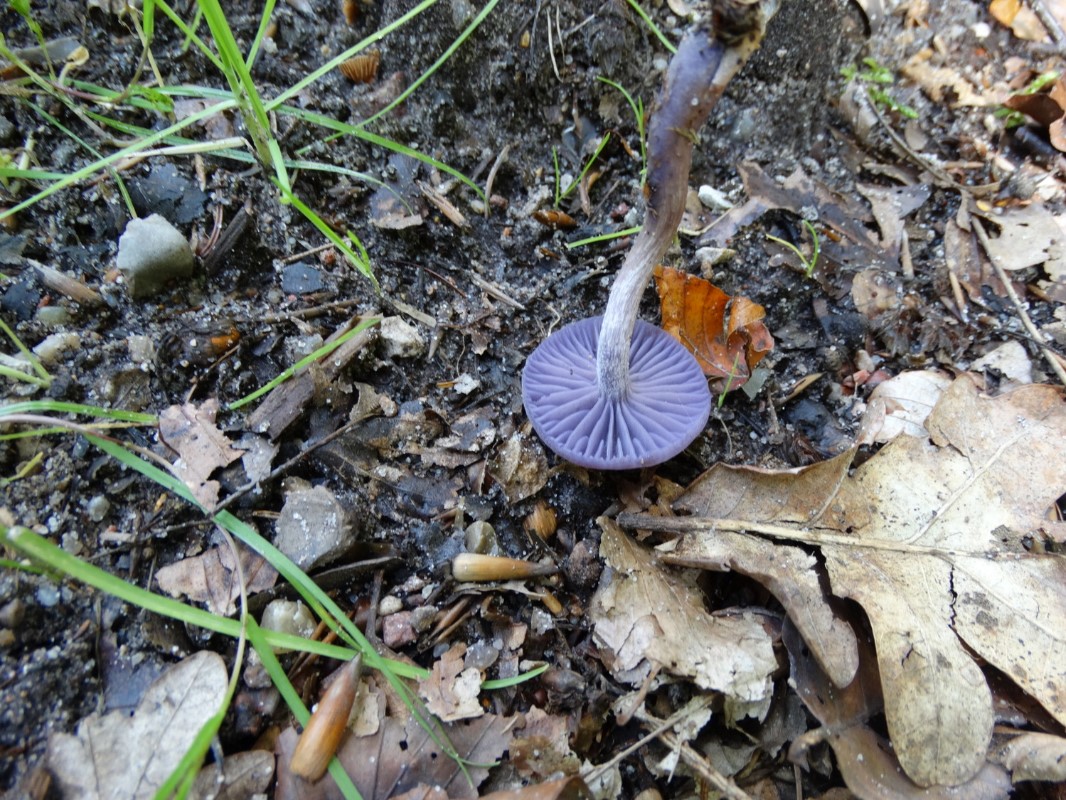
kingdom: Fungi
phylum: Basidiomycota
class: Agaricomycetes
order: Agaricales
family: Hydnangiaceae
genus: Laccaria
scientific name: Laccaria amethystina
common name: violet ametysthat
